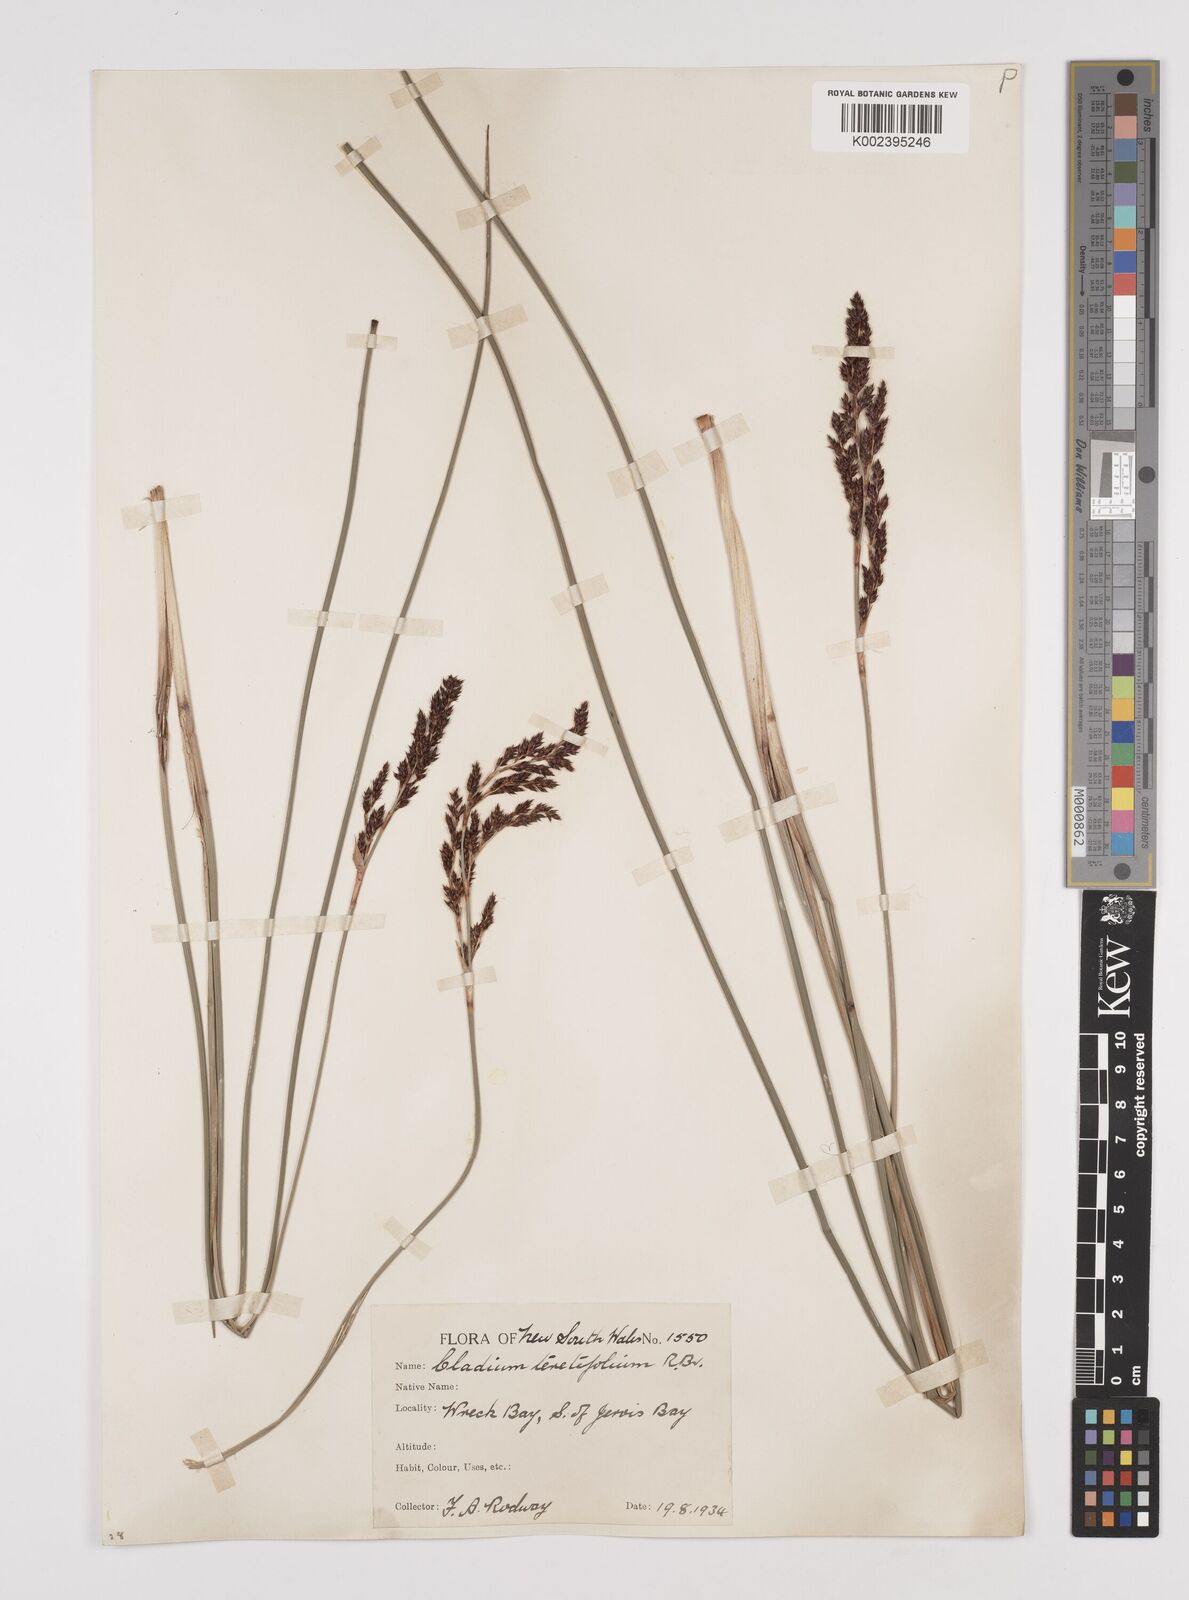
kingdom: Plantae
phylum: Tracheophyta
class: Liliopsida
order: Poales
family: Cyperaceae
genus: Machaerina
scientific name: Machaerina teretifolia
